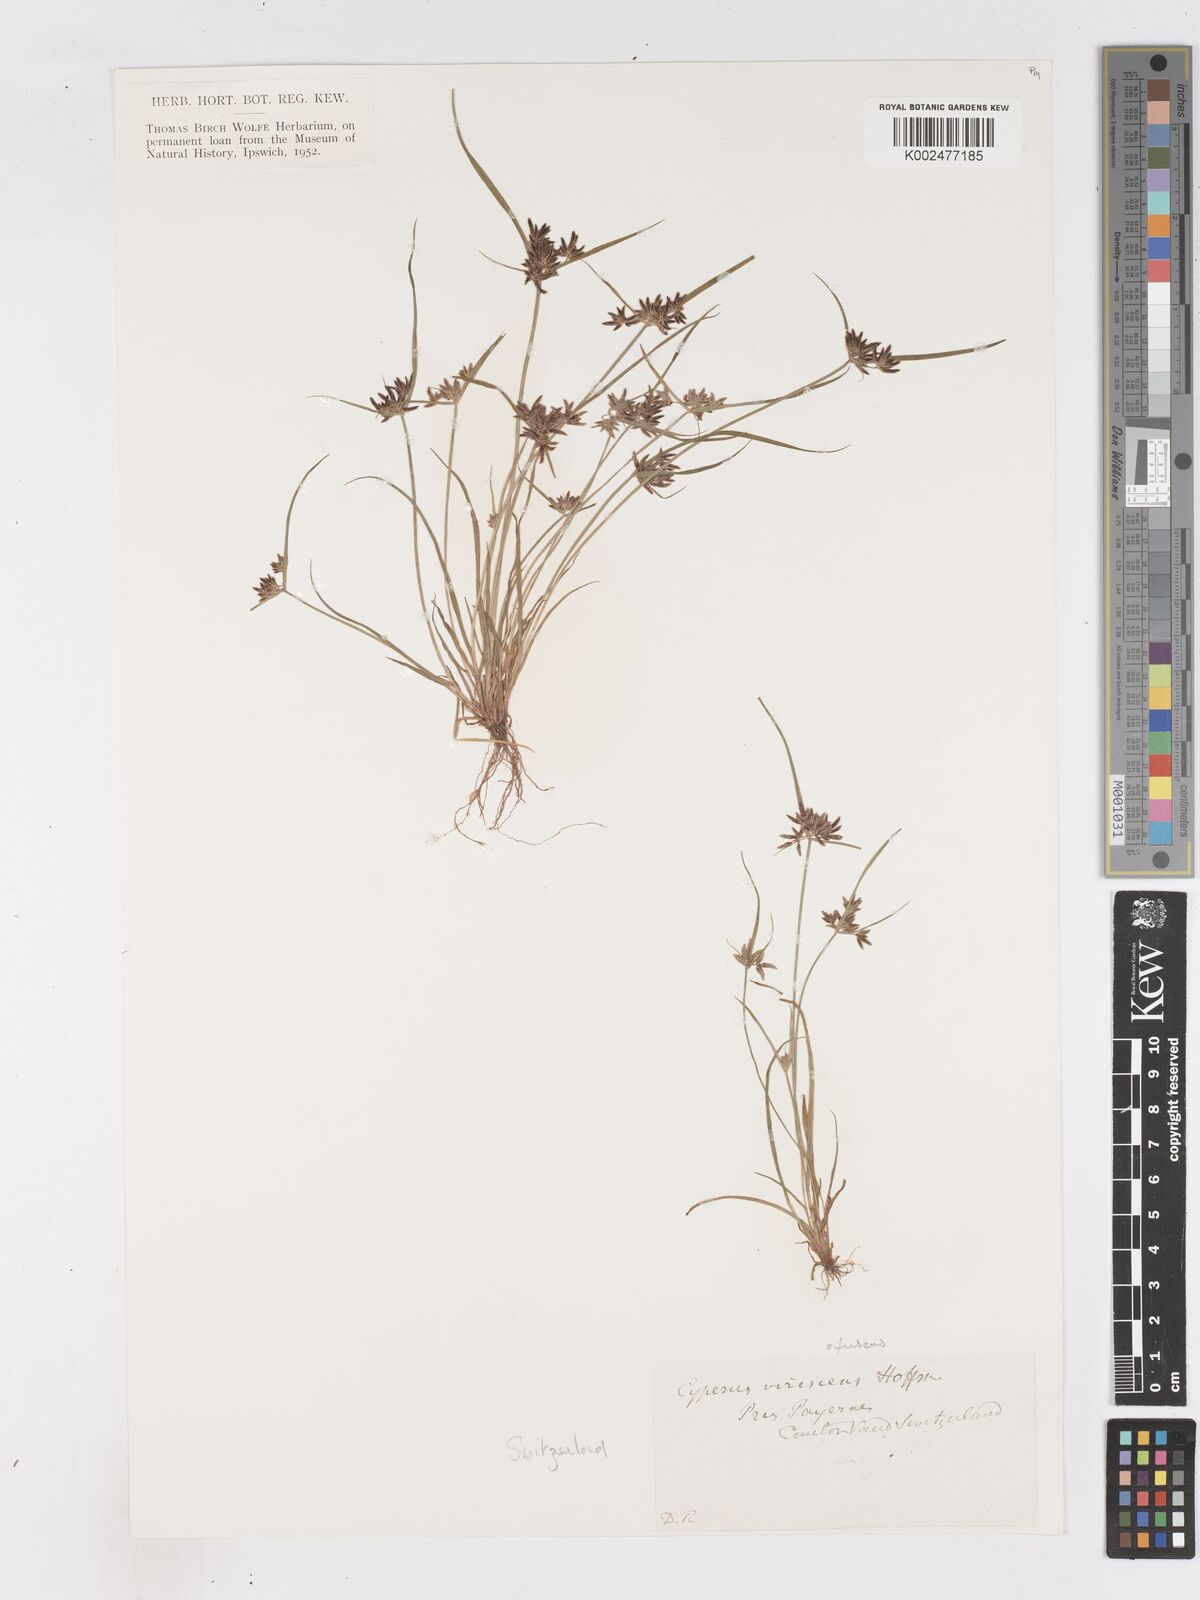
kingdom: Plantae
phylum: Tracheophyta
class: Liliopsida
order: Poales
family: Cyperaceae
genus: Cyperus
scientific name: Cyperus fuscus
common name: Brown galingale
